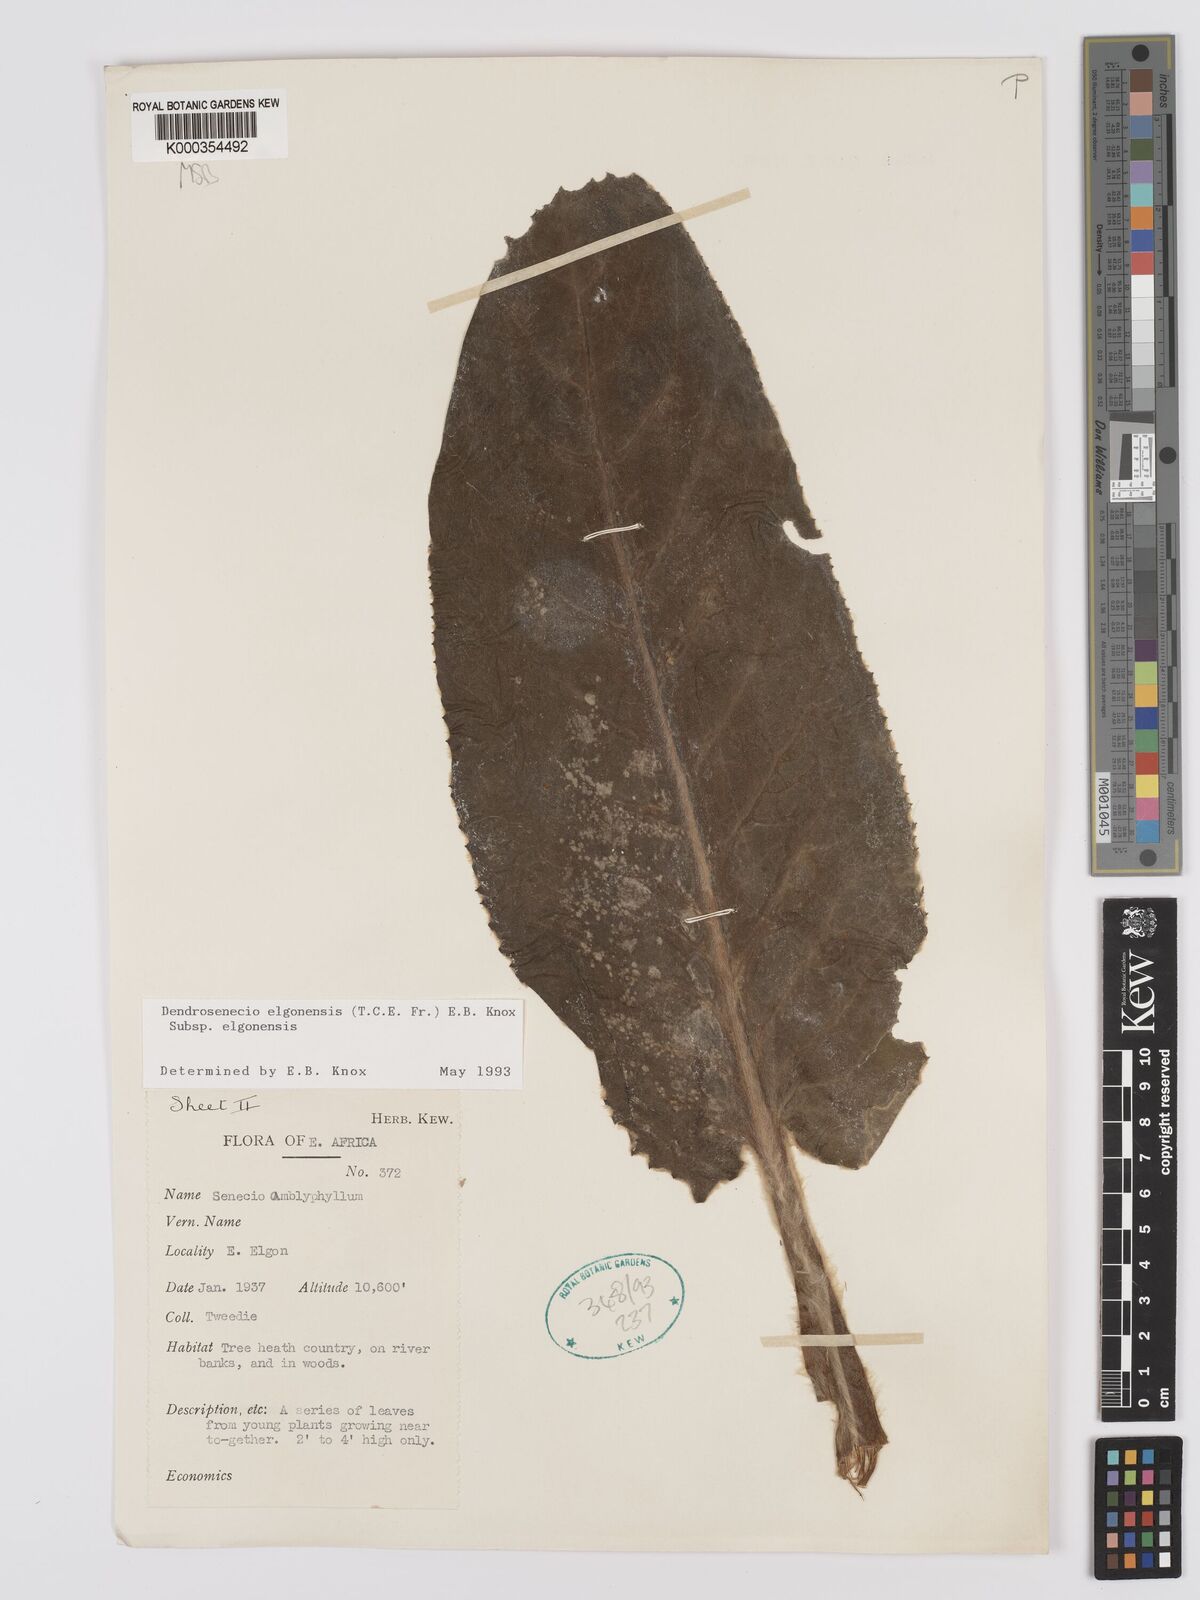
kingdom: Plantae
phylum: Tracheophyta
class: Magnoliopsida
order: Asterales
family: Asteraceae
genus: Dendrosenecio
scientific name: Dendrosenecio elgonensis
